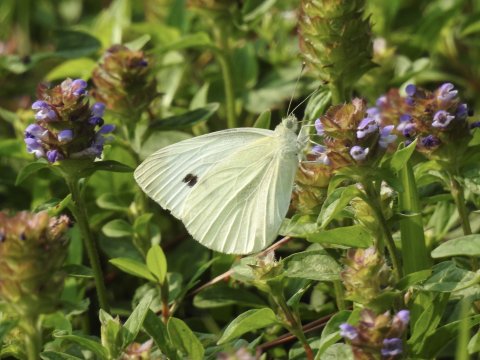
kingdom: Animalia
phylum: Arthropoda
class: Insecta
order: Lepidoptera
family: Pieridae
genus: Pieris
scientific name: Pieris rapae
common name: Cabbage White
